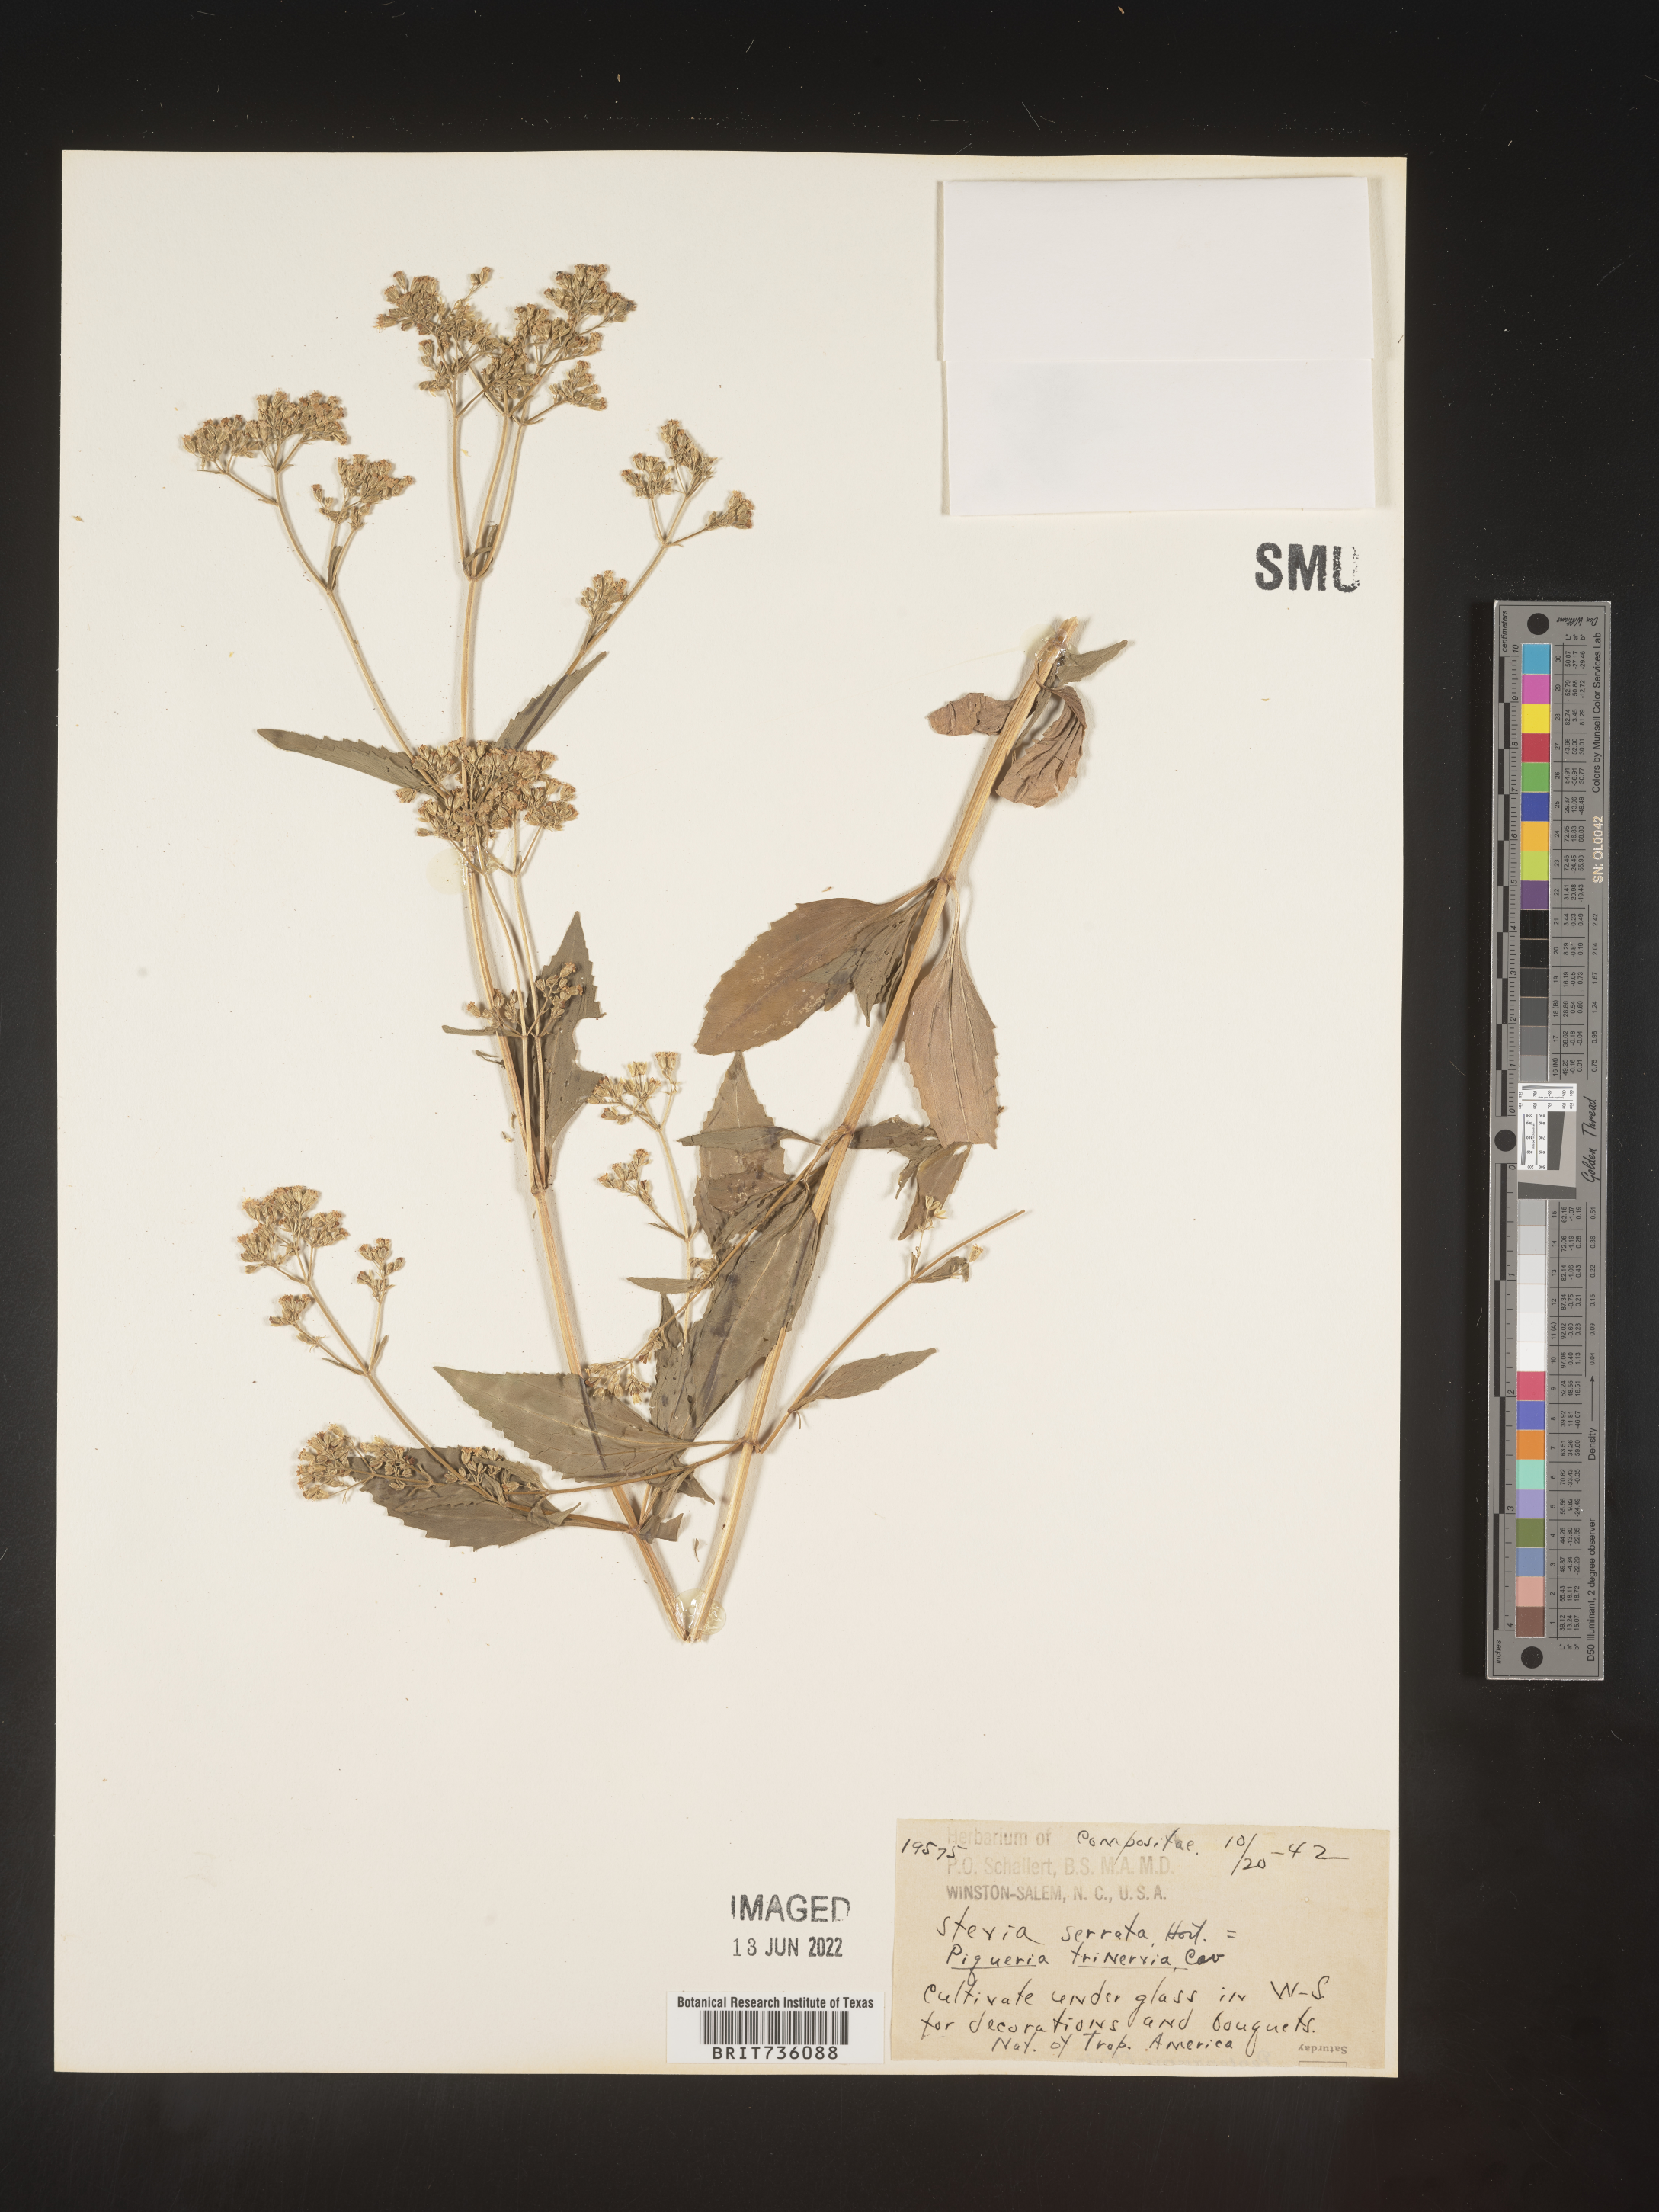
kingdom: Plantae
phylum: Tracheophyta
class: Magnoliopsida
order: Asterales
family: Asteraceae
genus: Piqueria
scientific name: Piqueria
